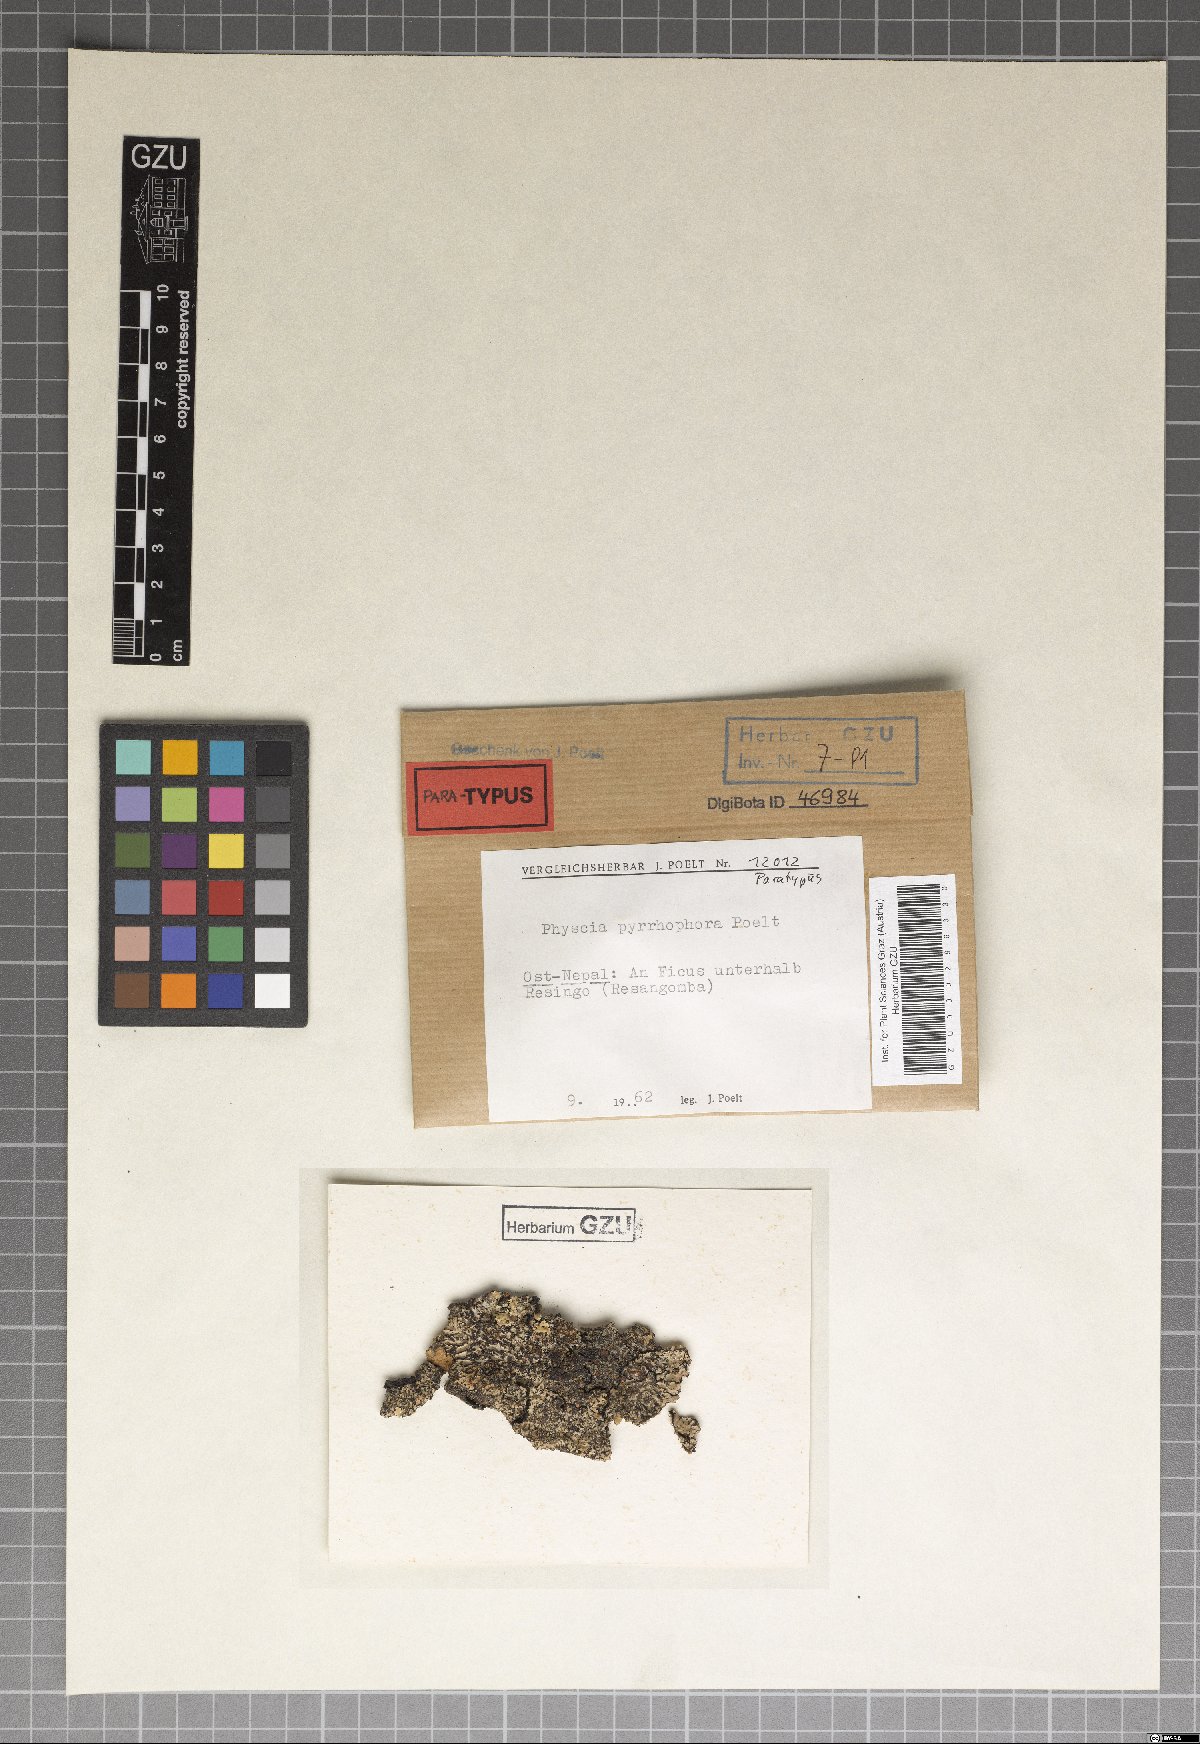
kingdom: Fungi
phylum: Ascomycota
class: Lecanoromycetes
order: Caliciales
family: Physciaceae
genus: Physcia
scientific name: Physcia
